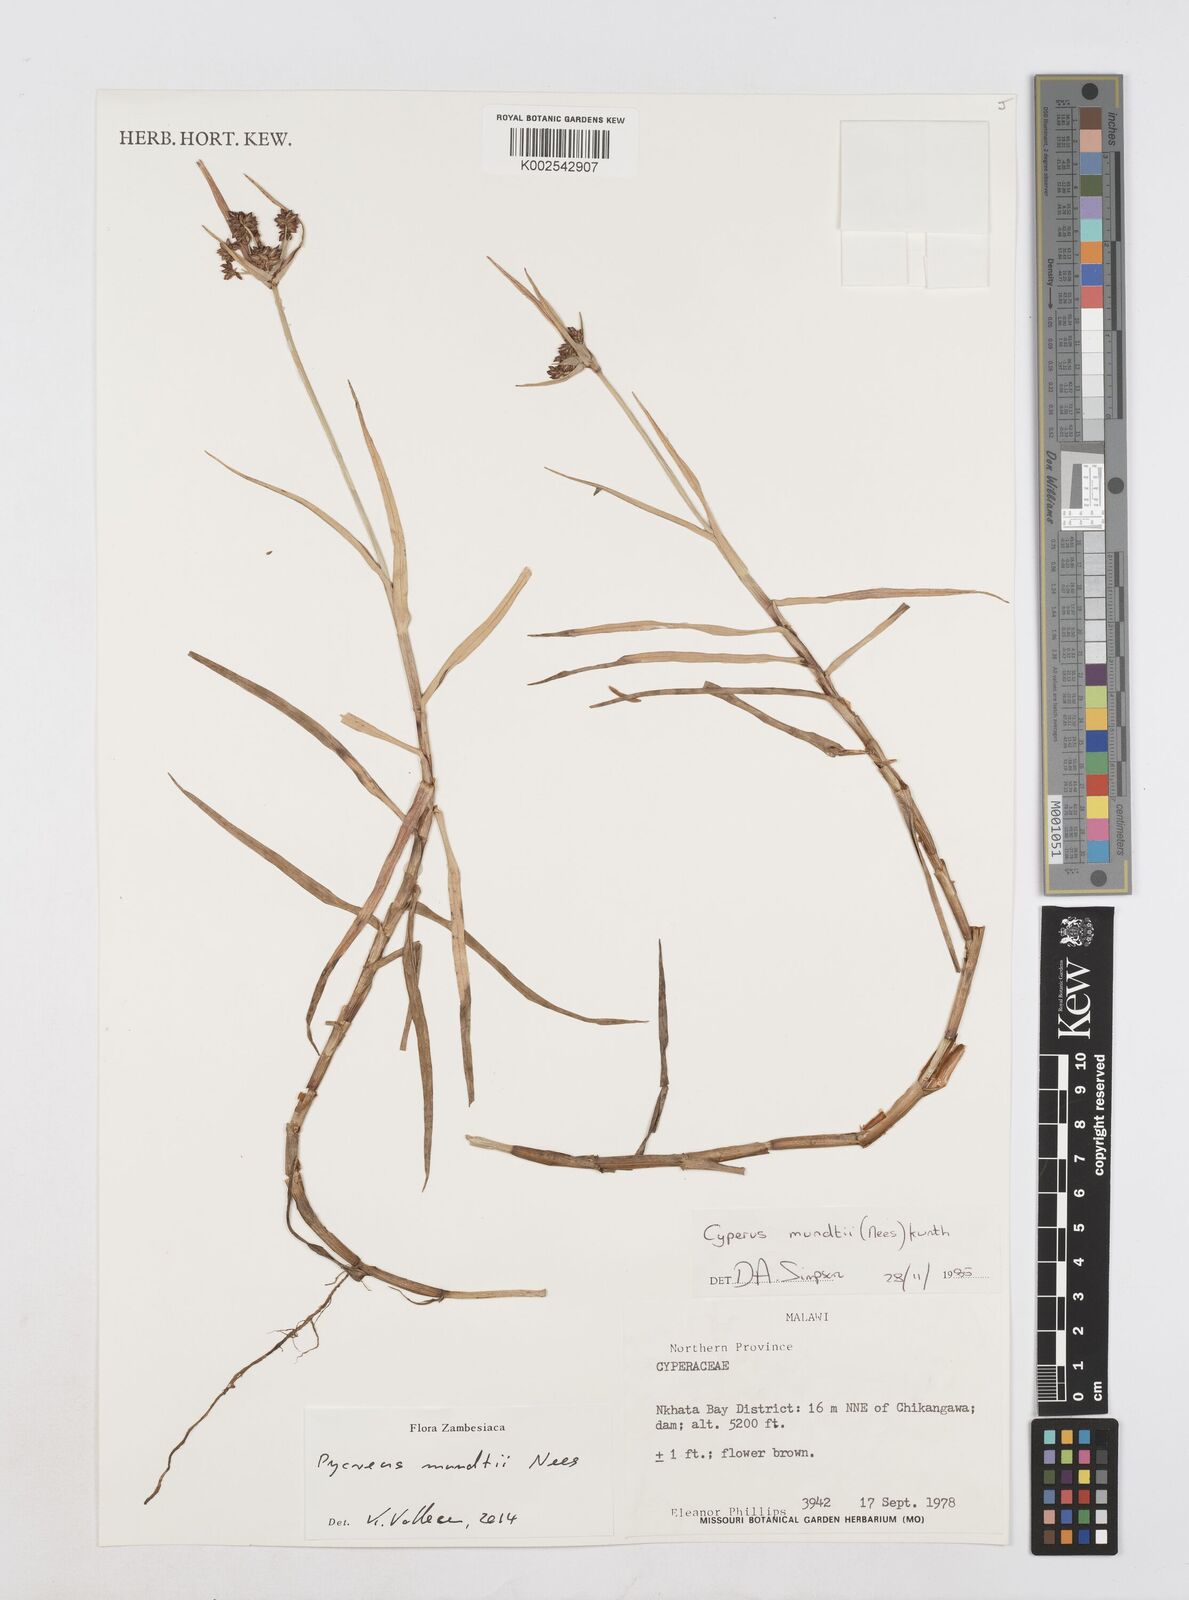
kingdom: Plantae
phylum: Tracheophyta
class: Liliopsida
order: Poales
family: Cyperaceae
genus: Cyperus
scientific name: Cyperus mundii
